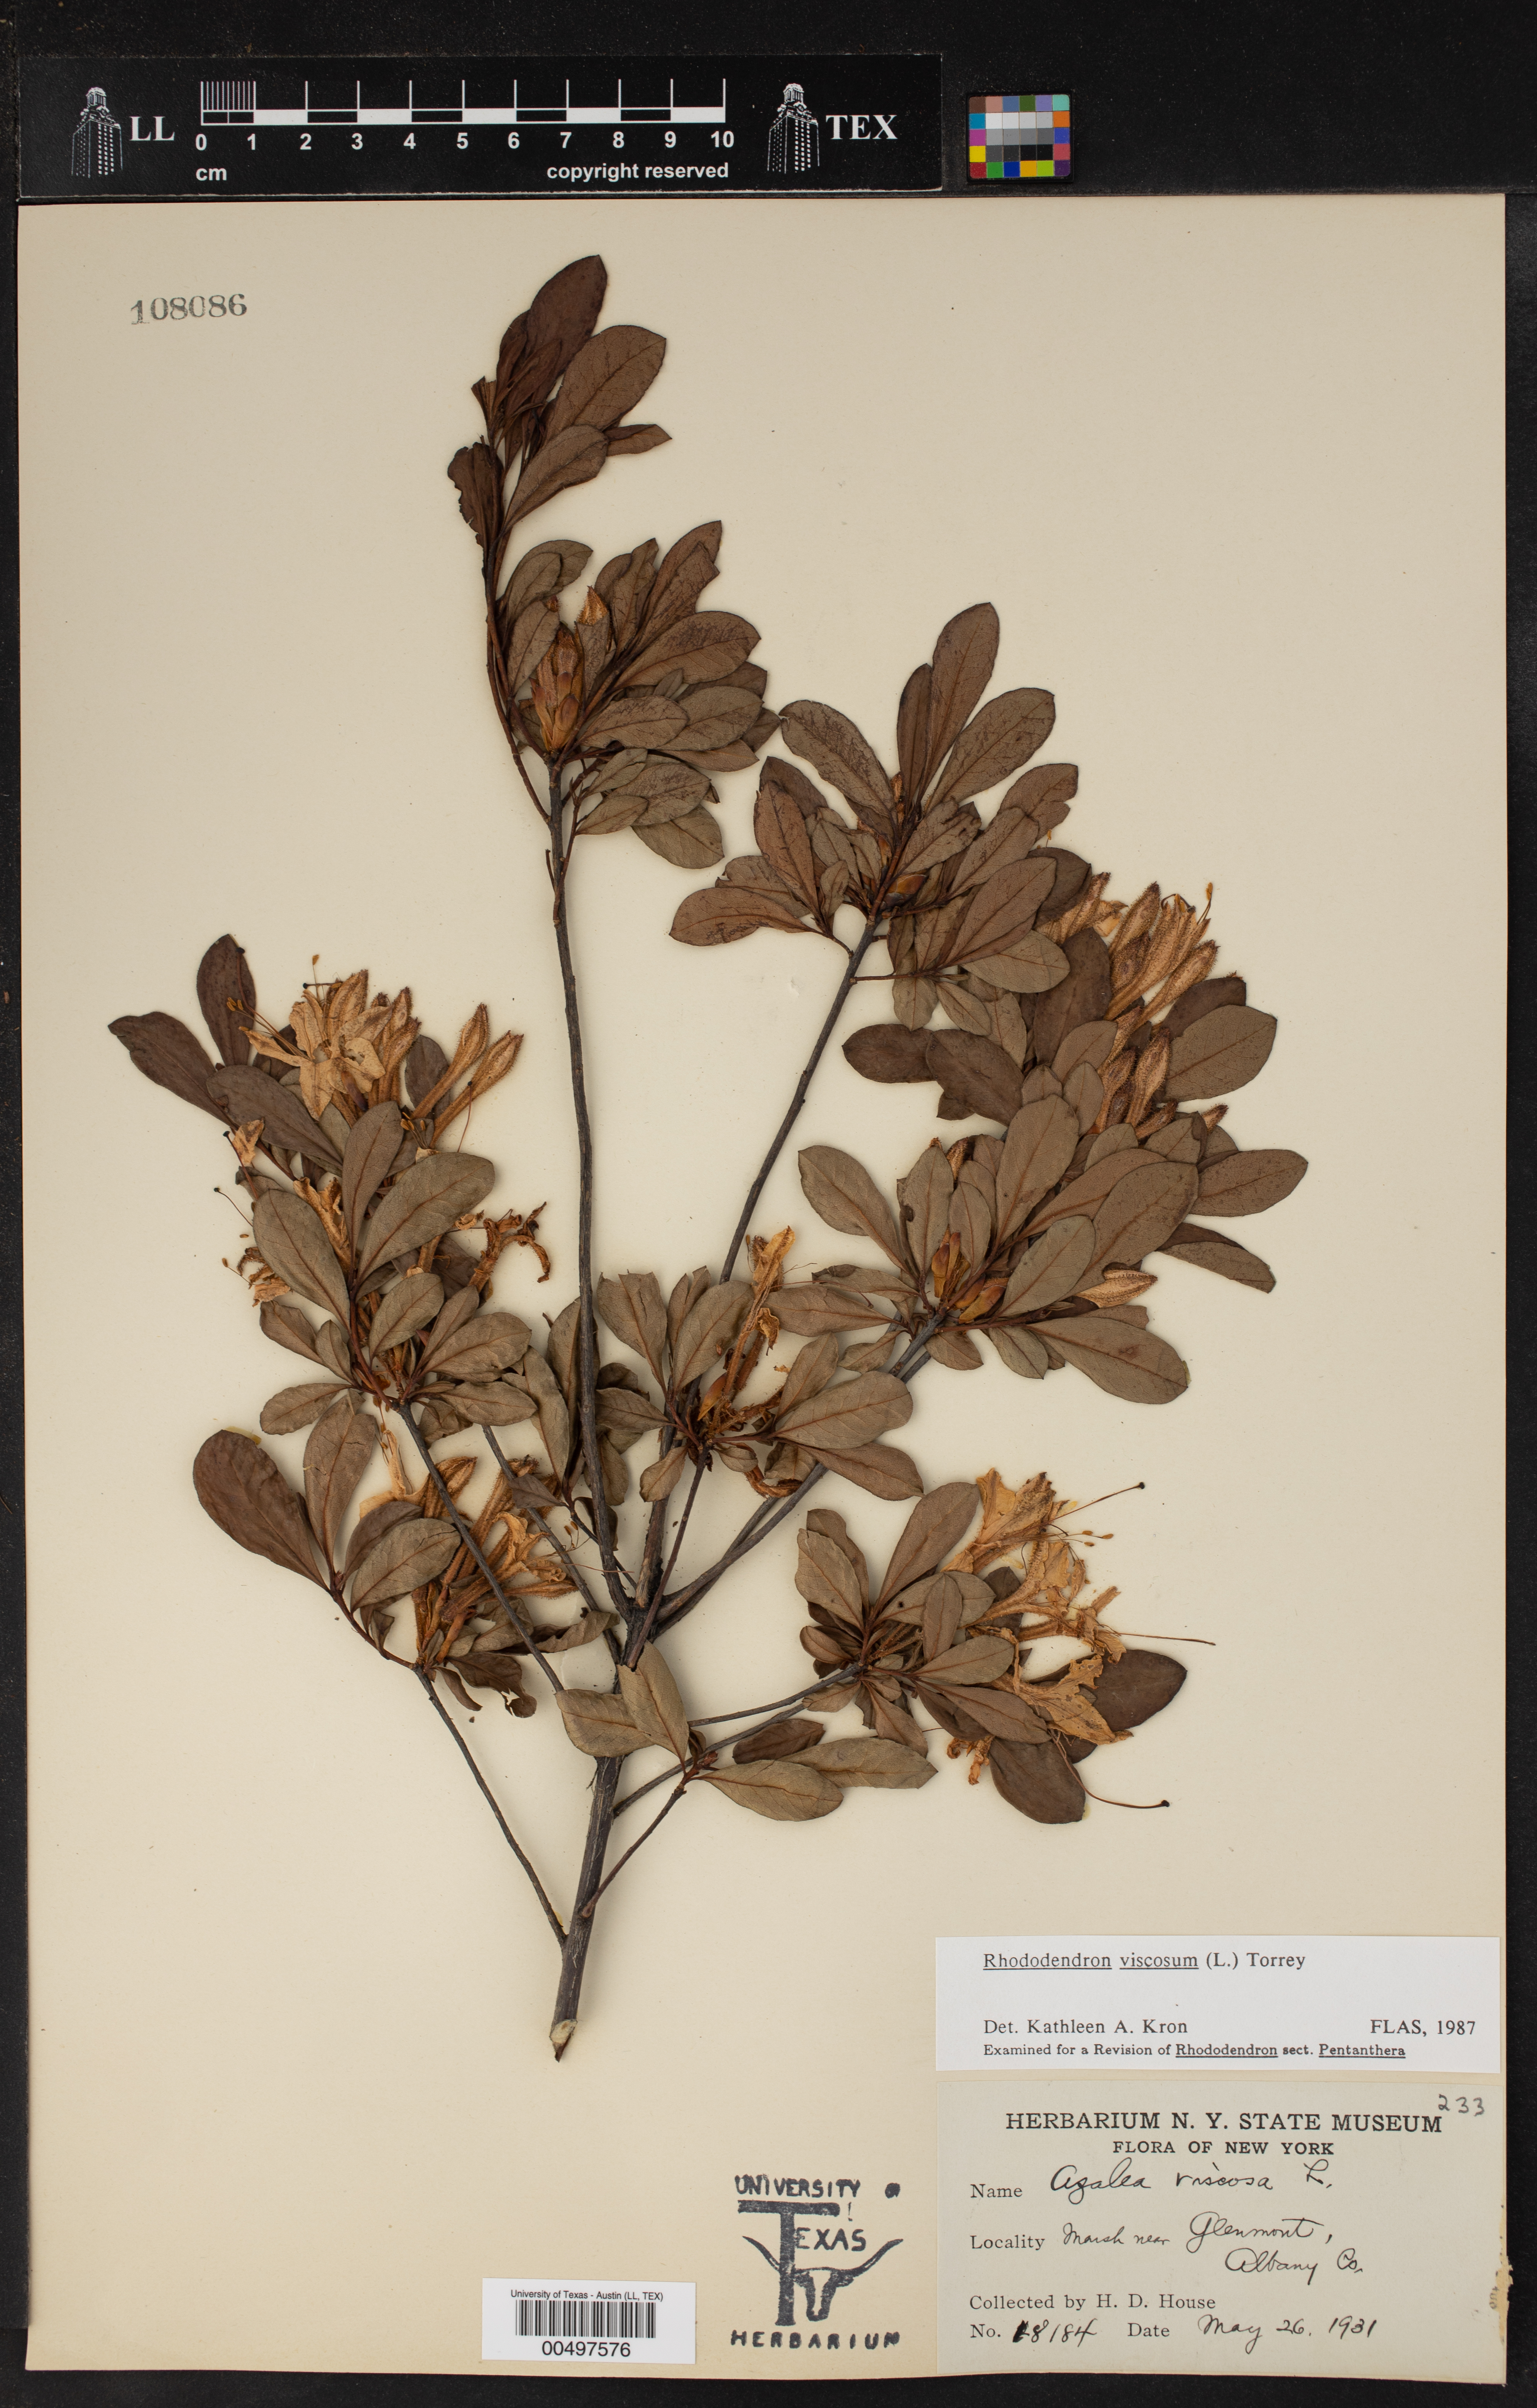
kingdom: Plantae
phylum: Tracheophyta
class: Magnoliopsida
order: Ericales
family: Ericaceae
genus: Rhododendron
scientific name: Rhododendron viscosum
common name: Clammy azalea
